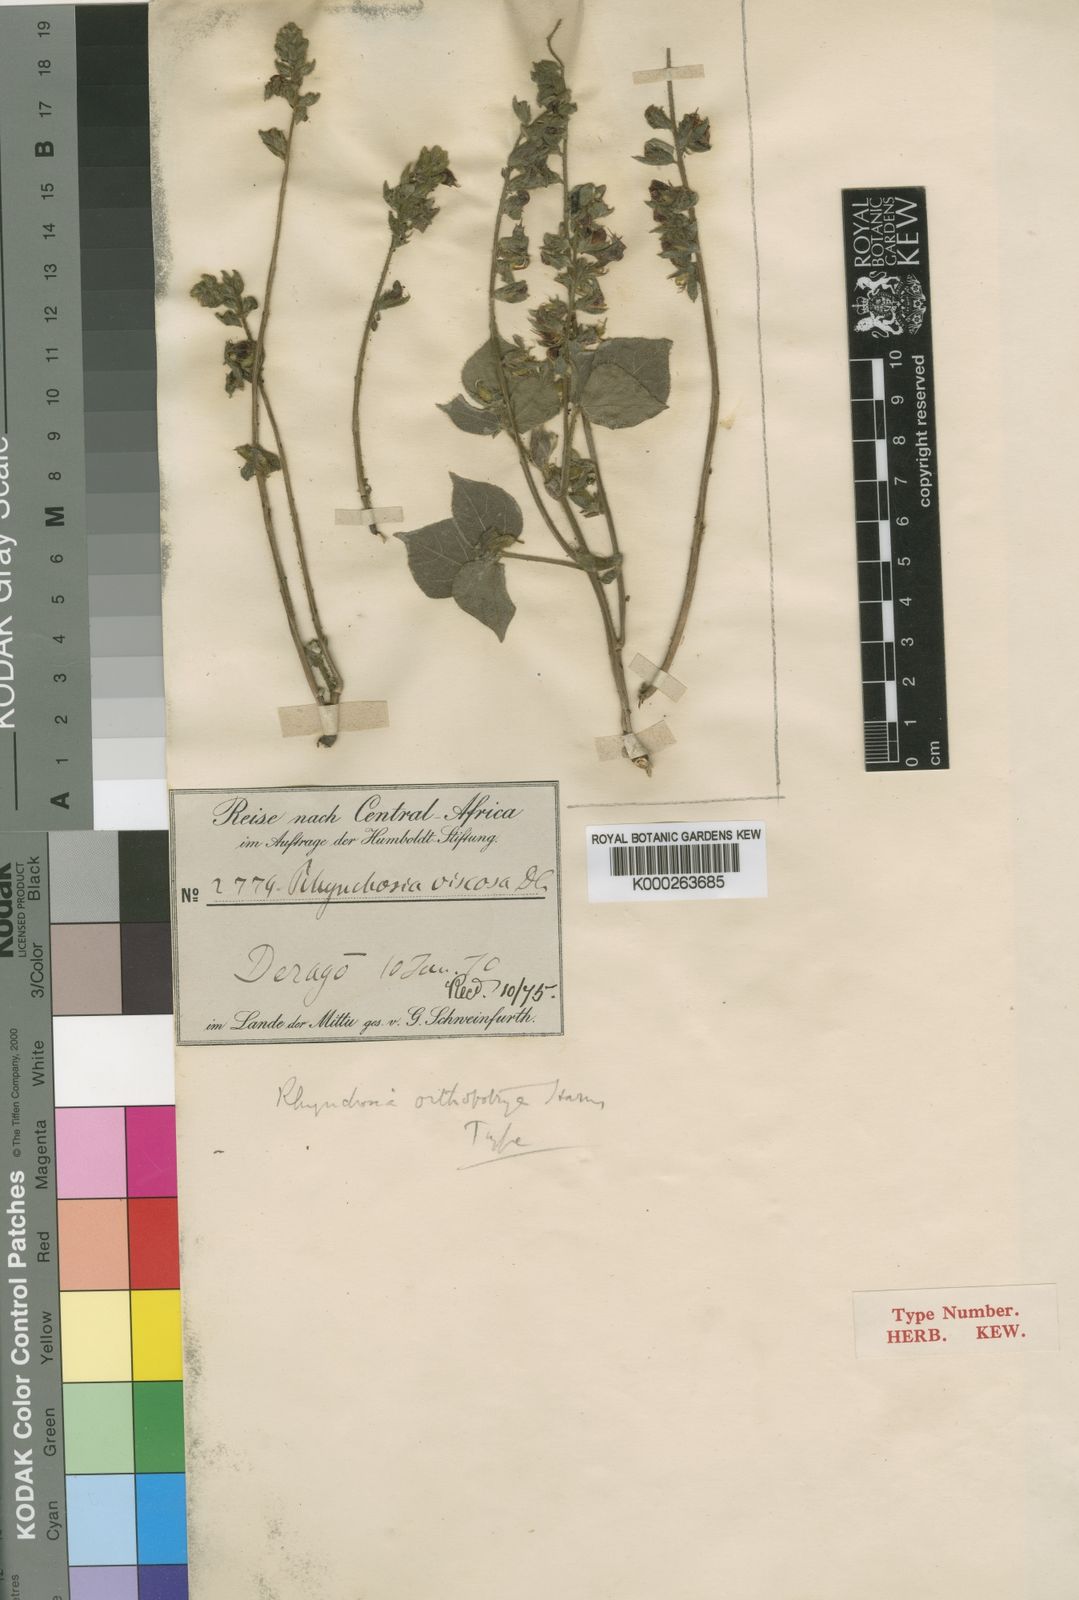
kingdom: Plantae
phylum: Tracheophyta
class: Magnoliopsida
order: Fabales
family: Fabaceae
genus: Rhynchosia
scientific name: Rhynchosia orthobotrya
